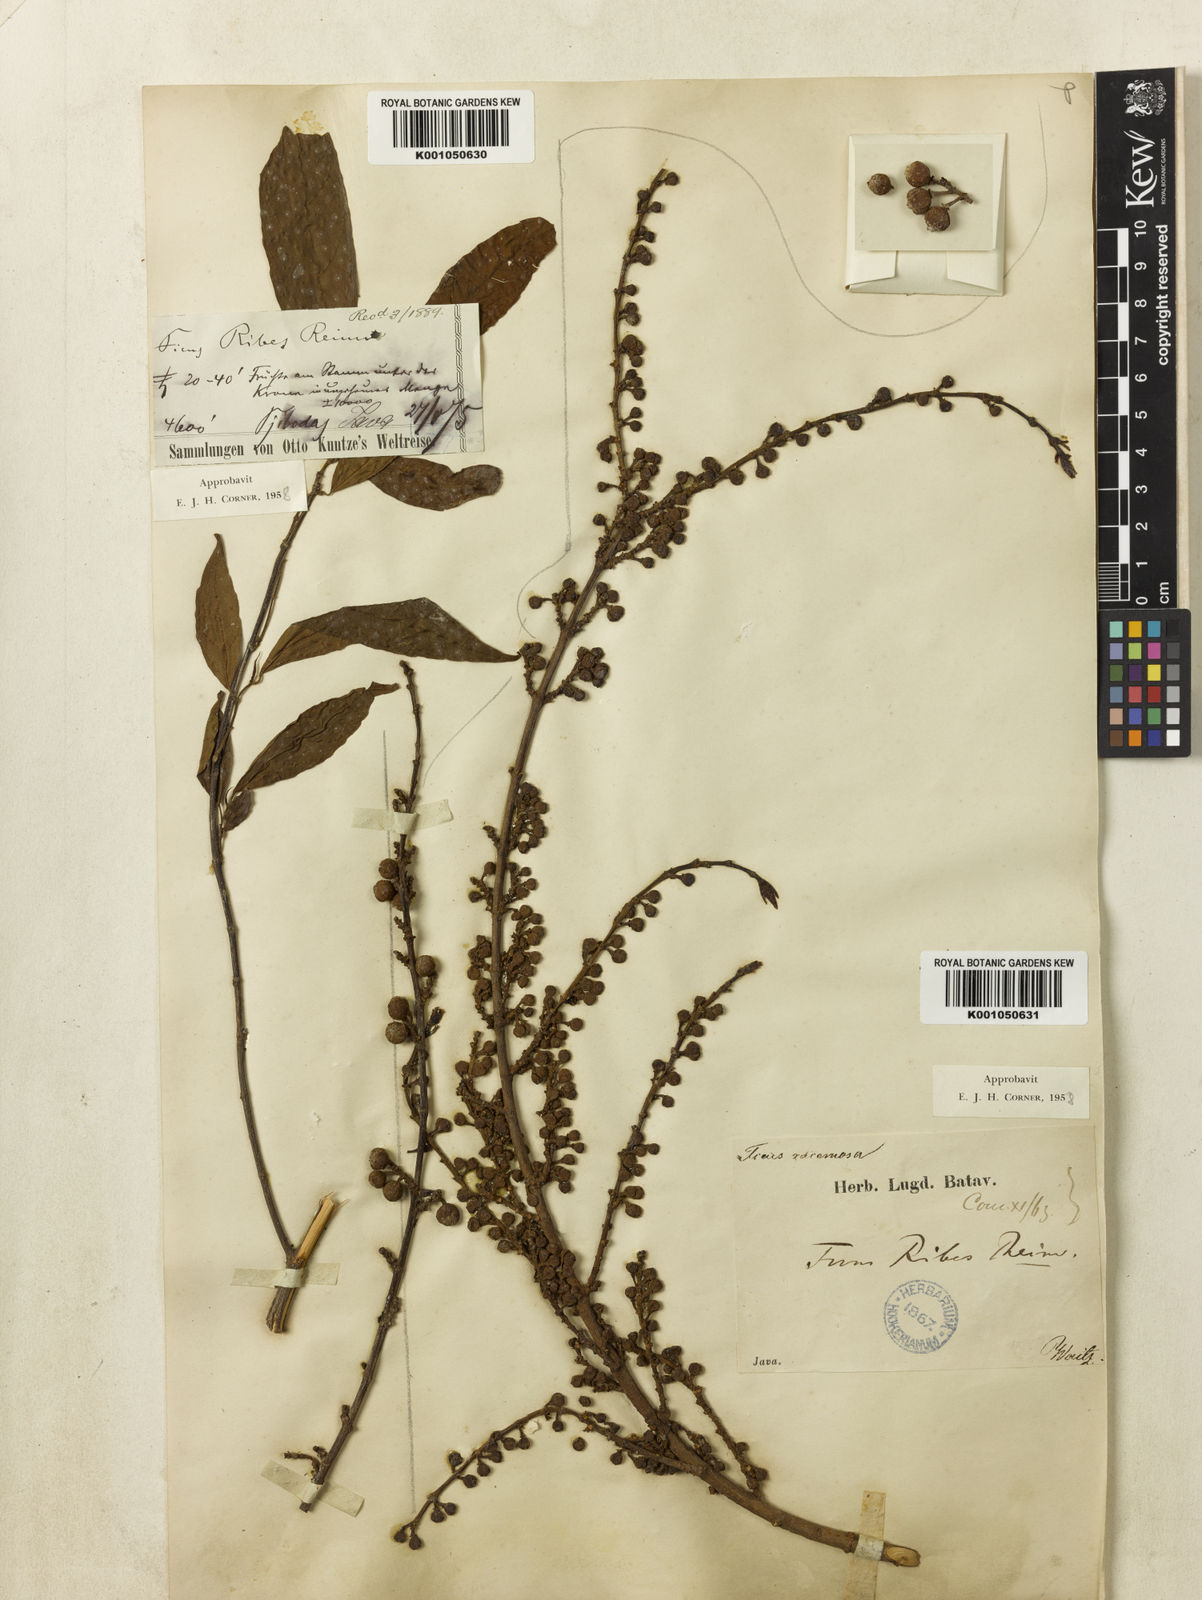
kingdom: Plantae
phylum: Tracheophyta
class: Magnoliopsida
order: Rosales
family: Moraceae
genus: Ficus
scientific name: Ficus ribes
